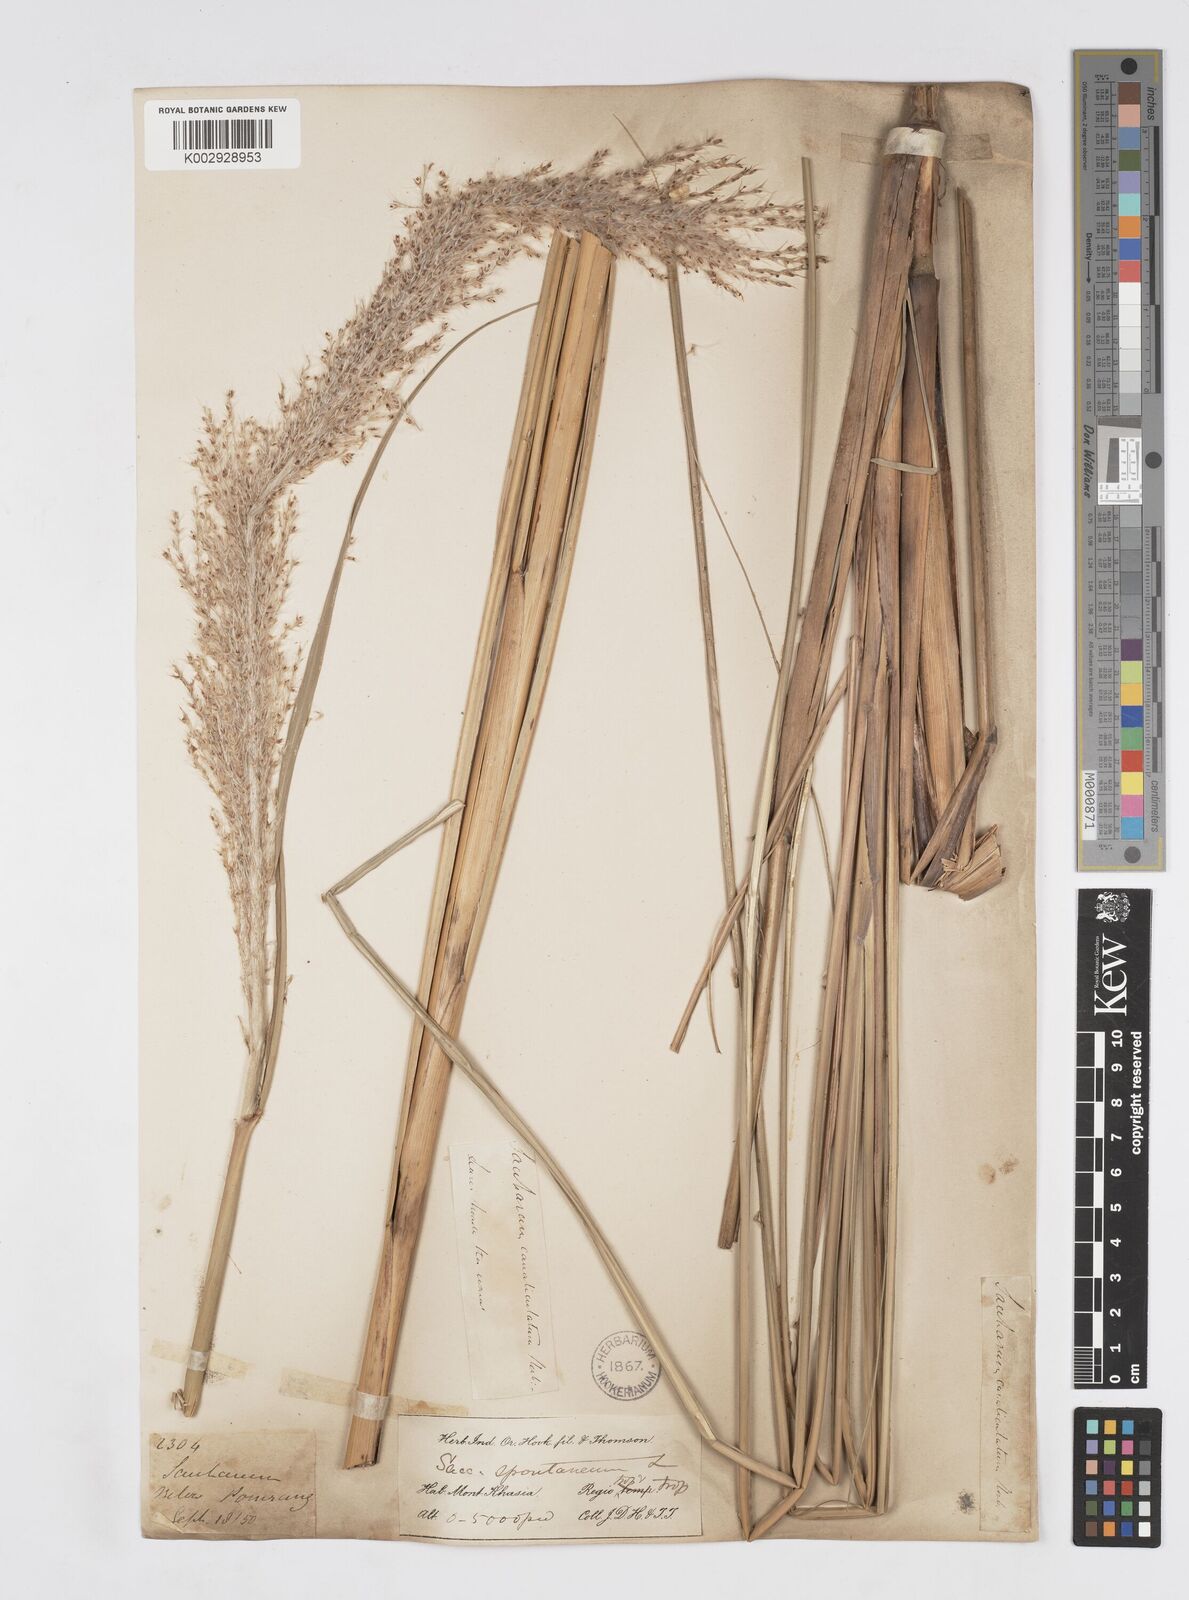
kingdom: Plantae
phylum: Tracheophyta
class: Liliopsida
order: Poales
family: Poaceae
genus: Saccharum
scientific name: Saccharum spontaneum
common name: Wild sugarcane
